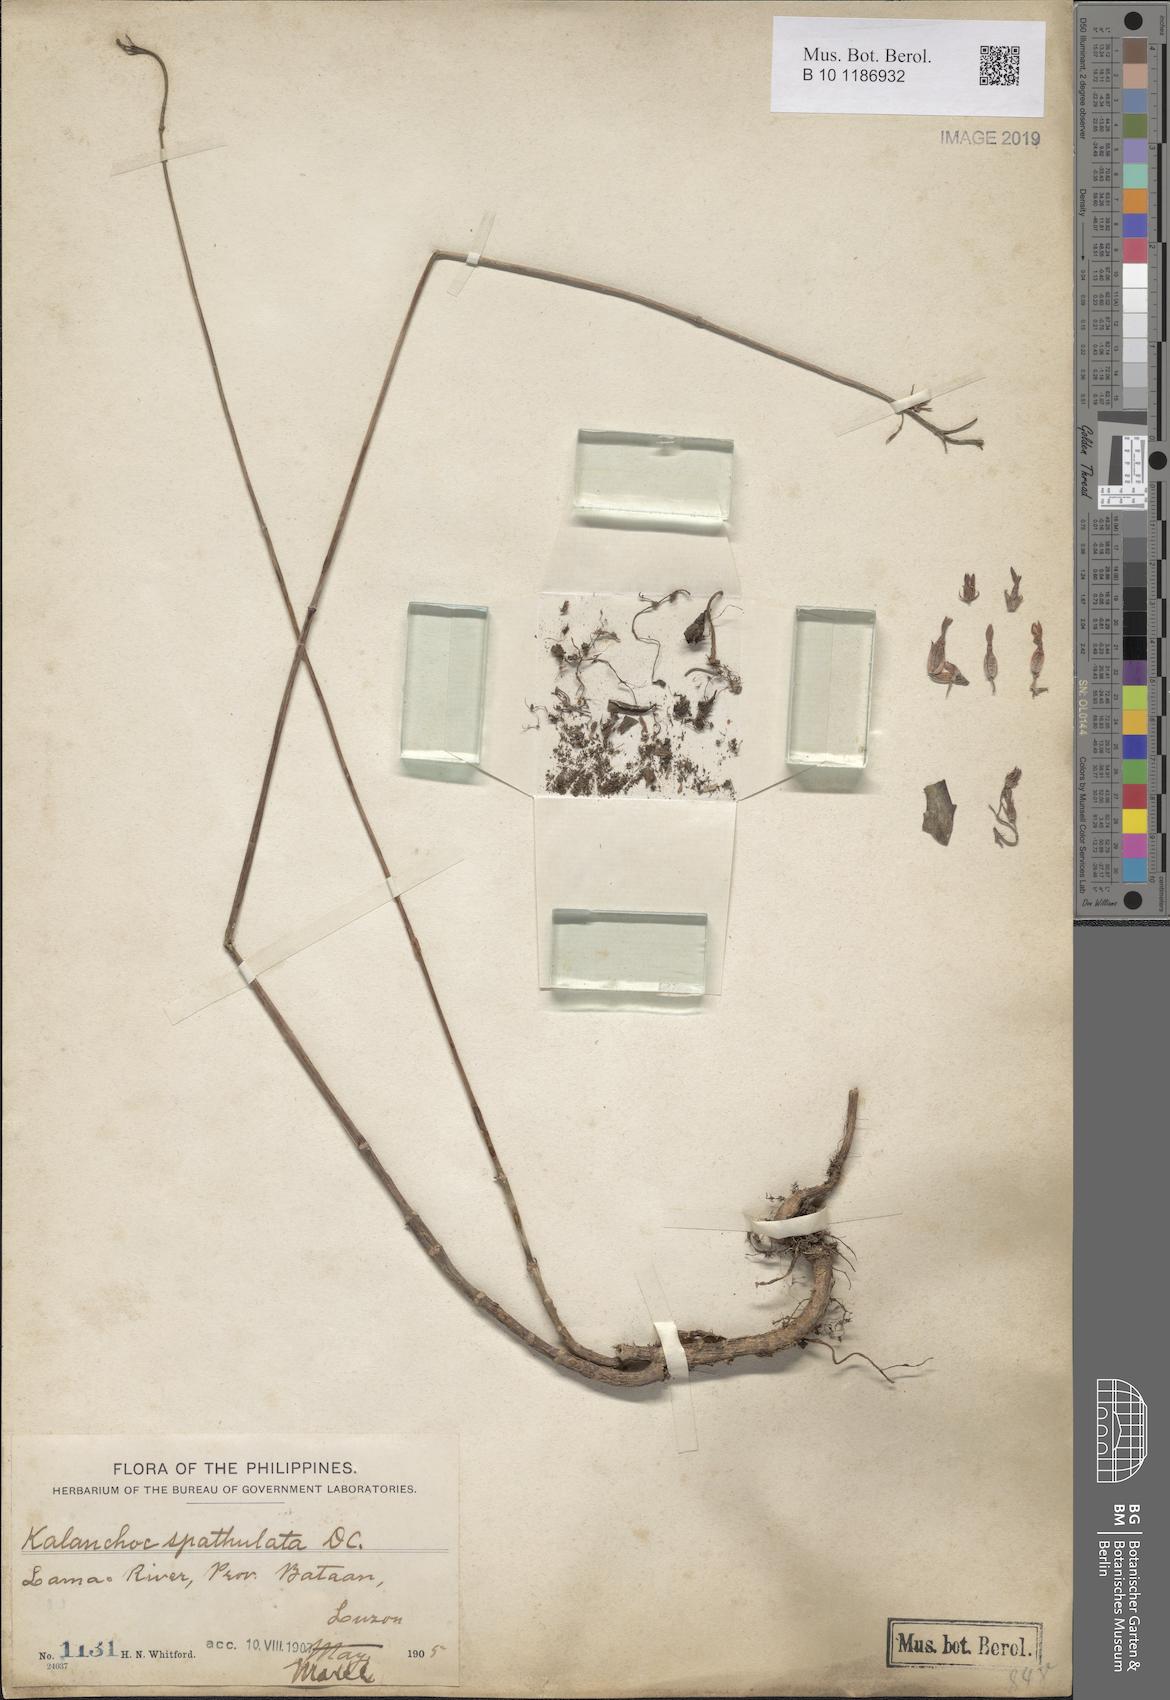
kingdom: Plantae
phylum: Tracheophyta
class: Magnoliopsida
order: Saxifragales
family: Crassulaceae
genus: Kalanchoe
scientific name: Kalanchoe integra
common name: Neverdie
